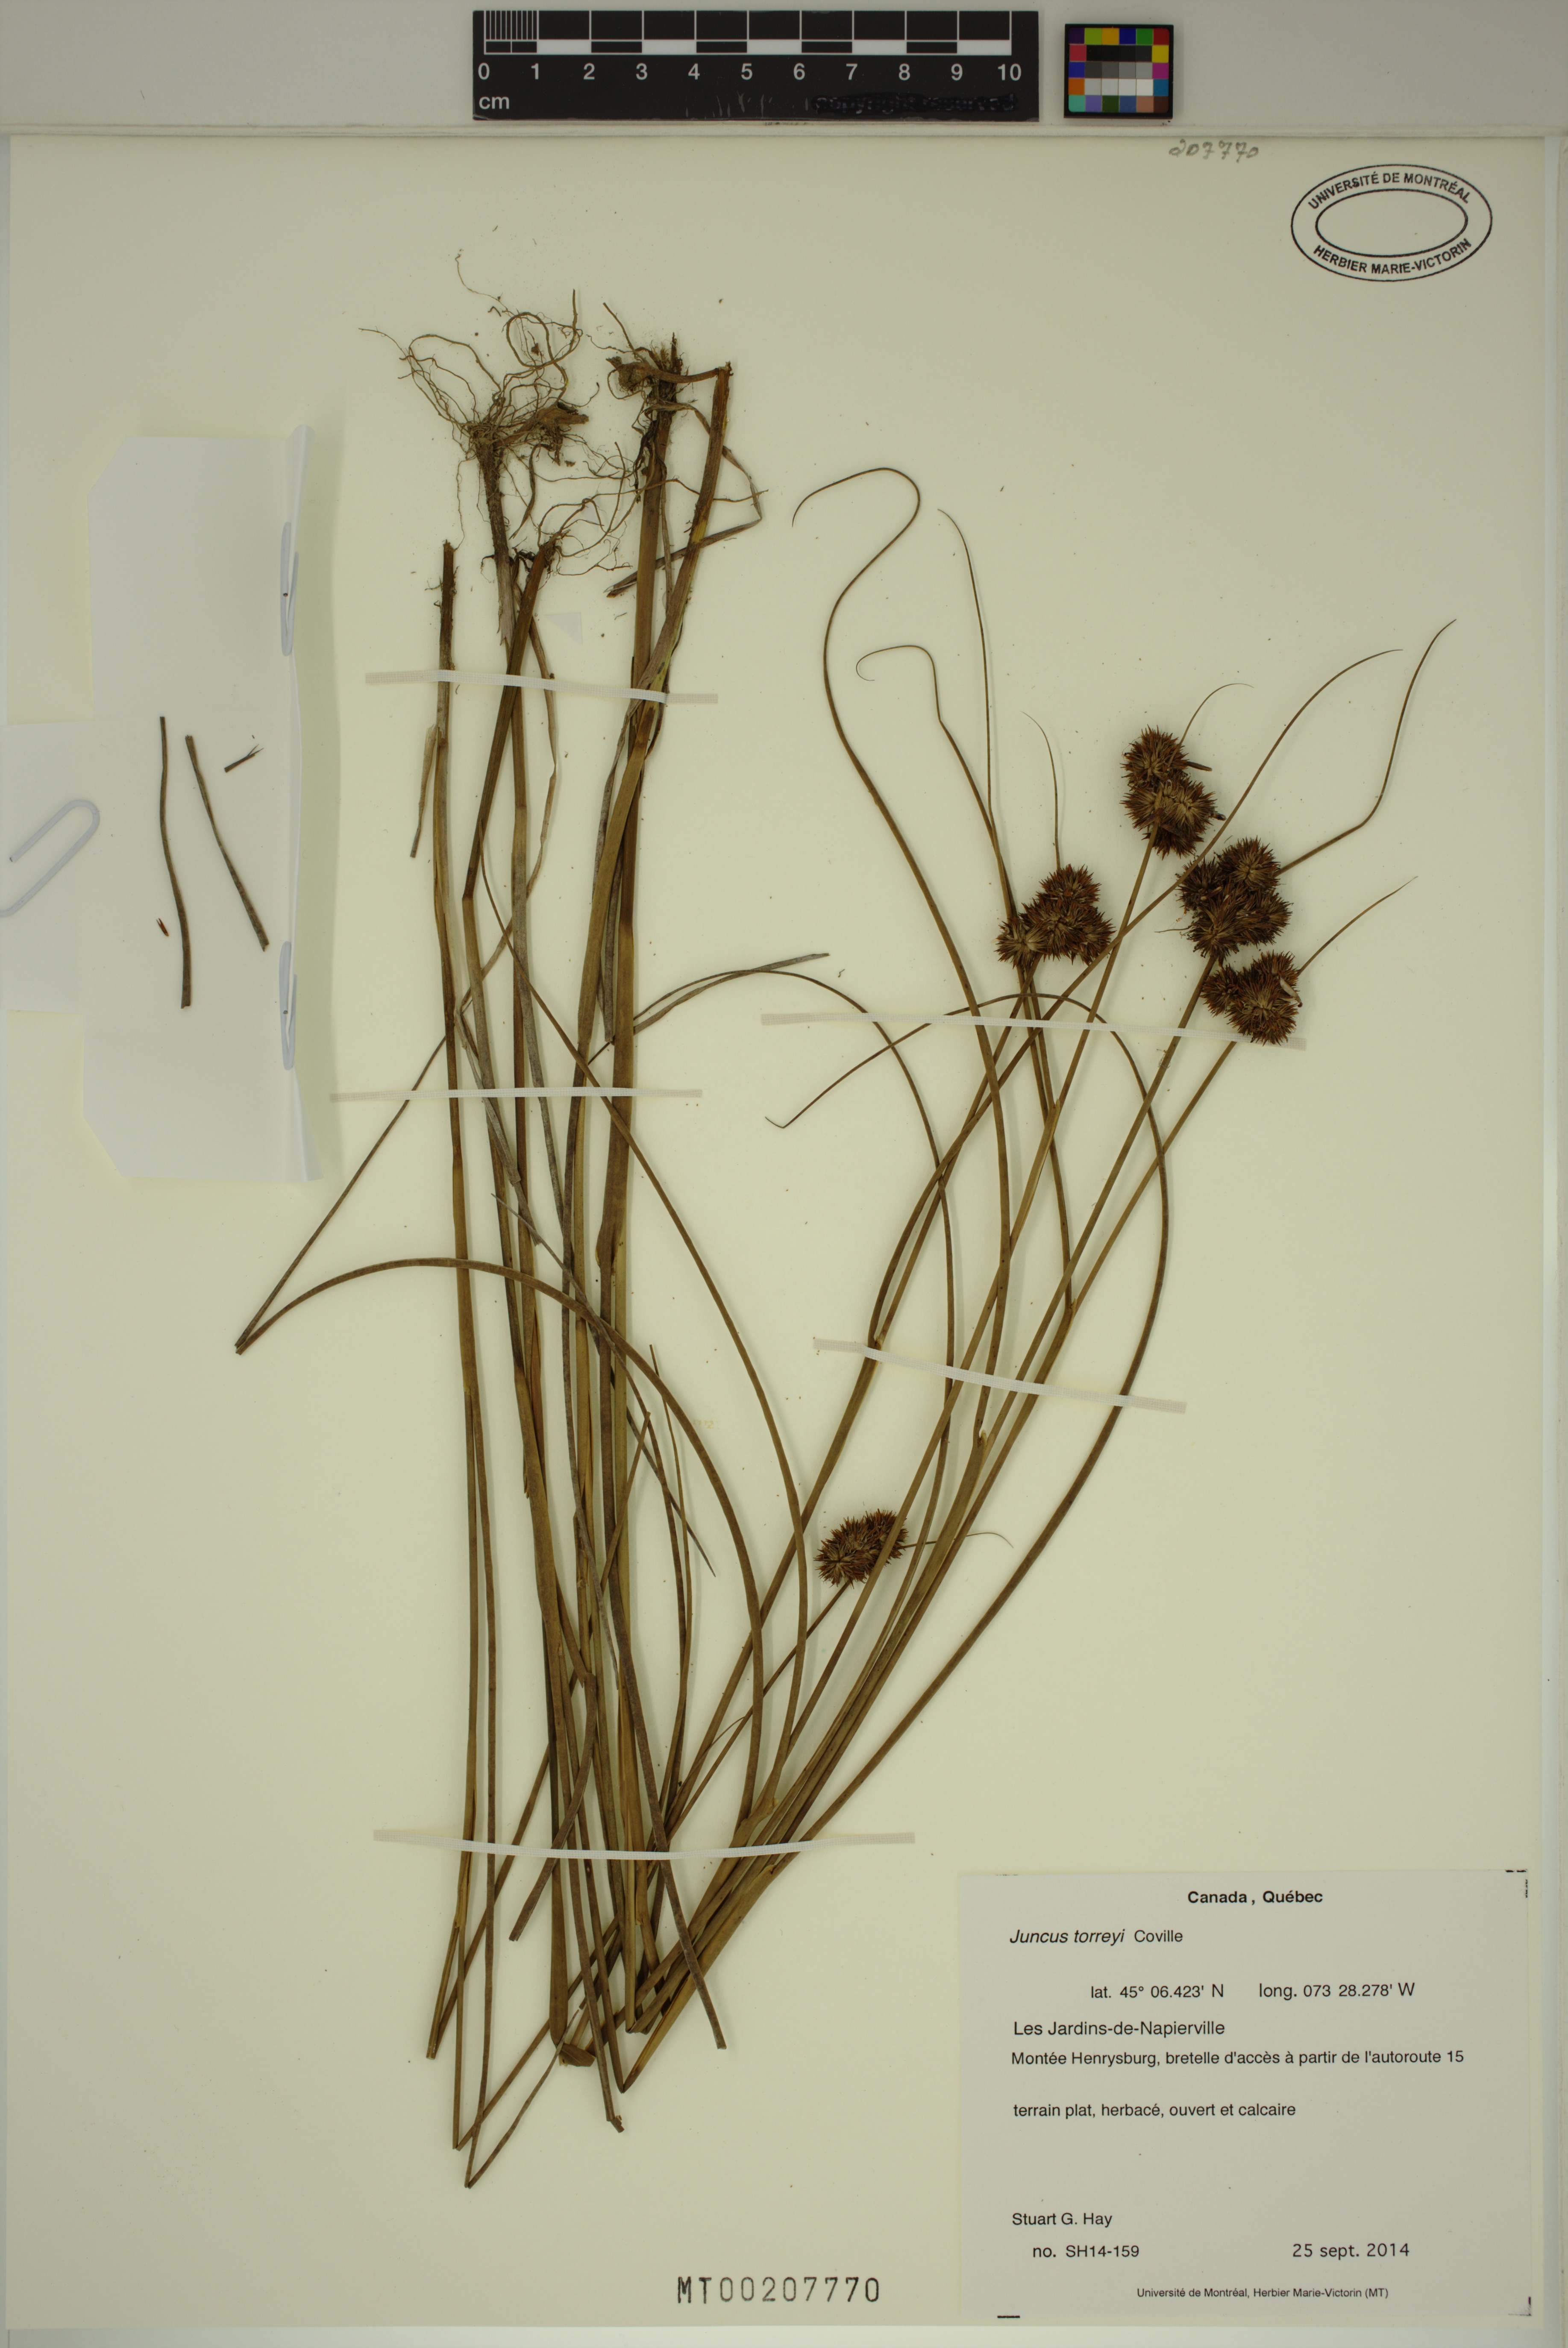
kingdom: Plantae
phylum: Tracheophyta
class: Liliopsida
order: Poales
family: Juncaceae
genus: Juncus
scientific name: Juncus torreyi
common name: Torrey's rush
